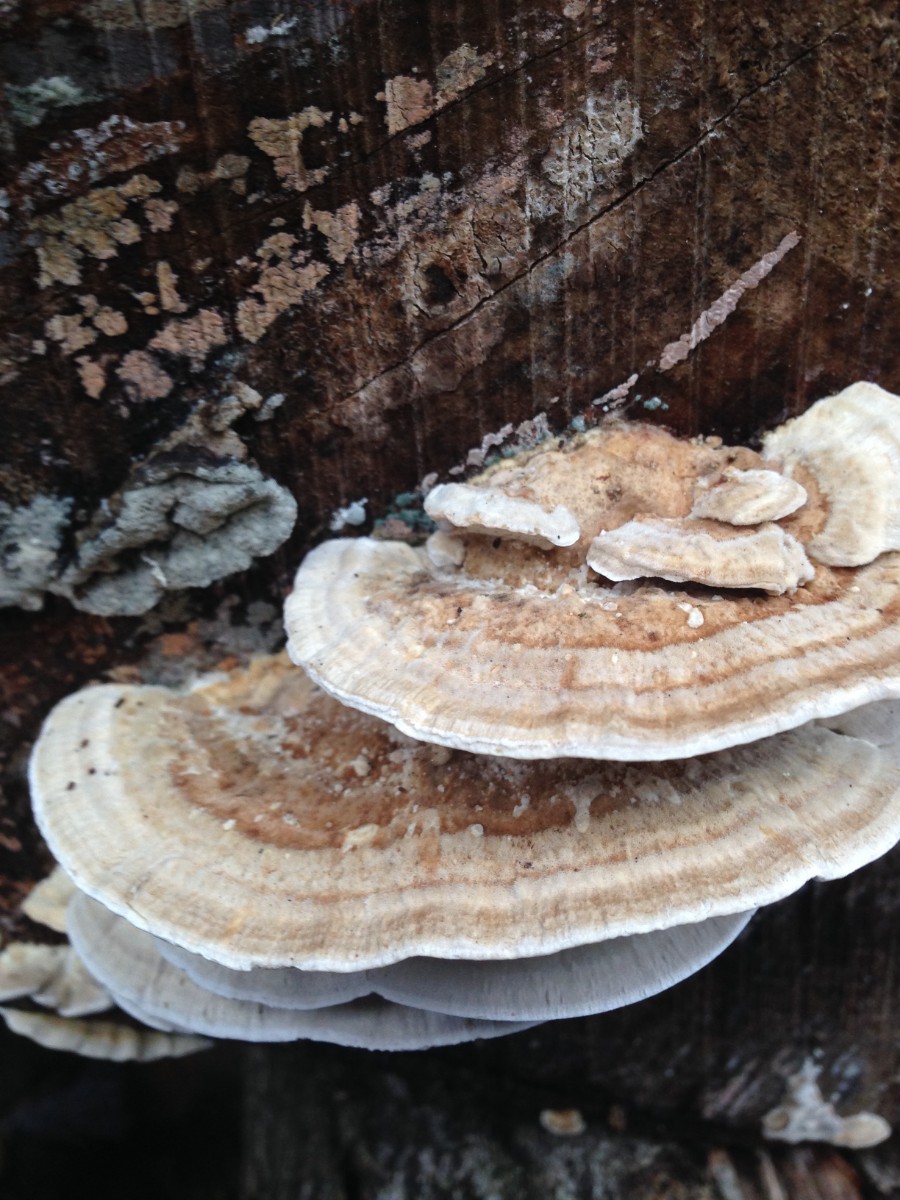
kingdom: Fungi
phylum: Basidiomycota
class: Agaricomycetes
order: Polyporales
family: Polyporaceae
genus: Trametes
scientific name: Trametes hirsuta
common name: håret læderporesvamp
